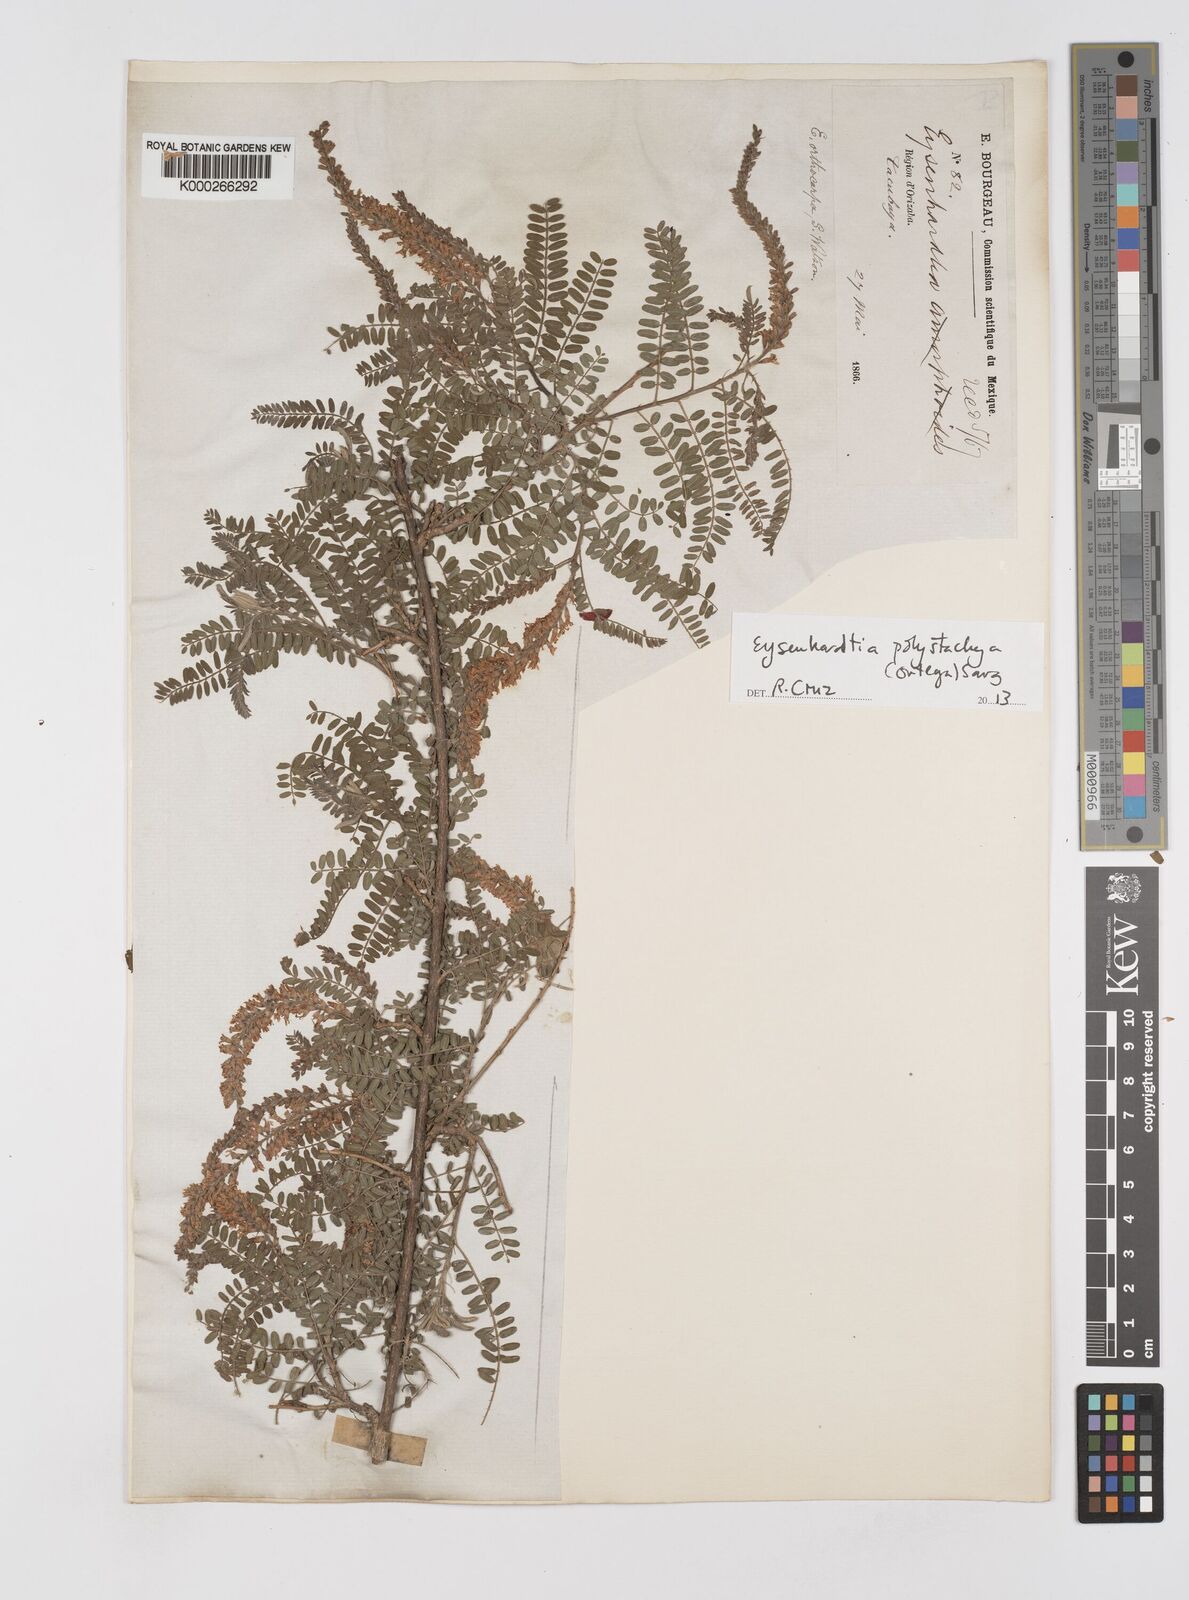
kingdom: Plantae
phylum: Tracheophyta
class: Magnoliopsida
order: Fabales
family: Fabaceae
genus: Eysenhardtia
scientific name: Eysenhardtia polystachya
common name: Kidneywood
